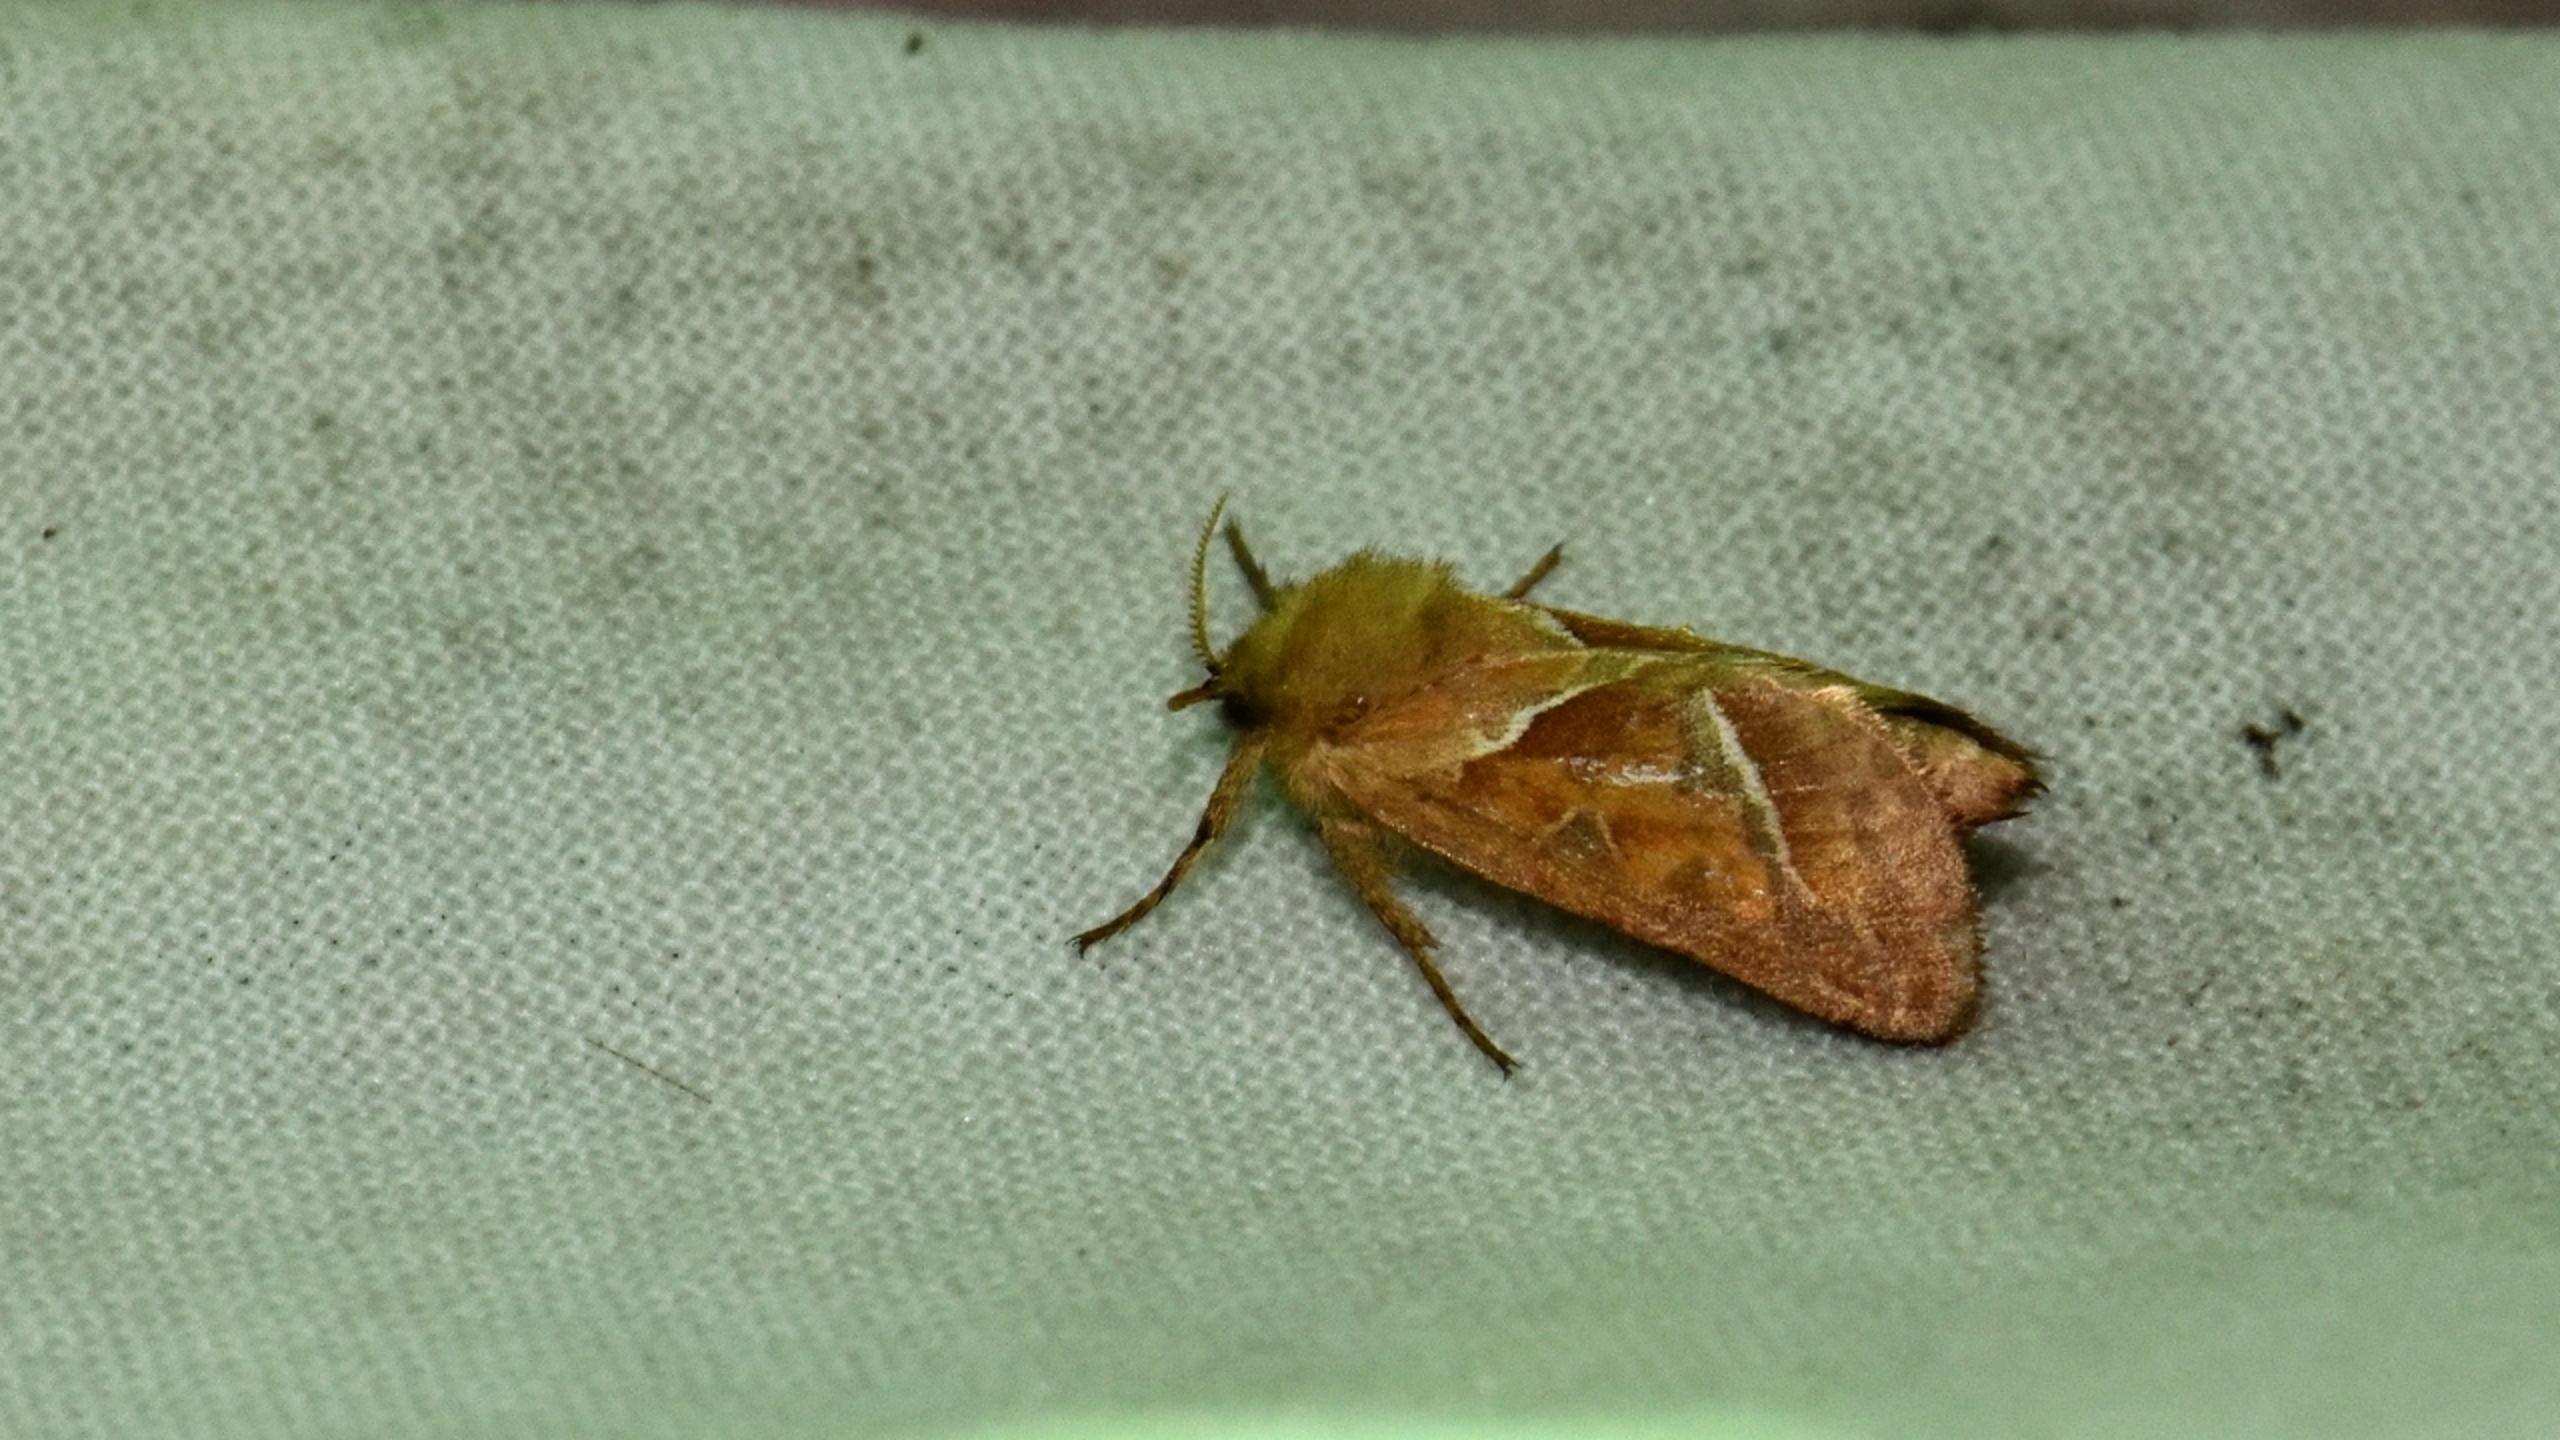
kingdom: Animalia
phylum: Arthropoda
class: Insecta
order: Lepidoptera
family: Hepialidae
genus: Triodia
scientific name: Triodia sylvina
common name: Skræpperodæder
